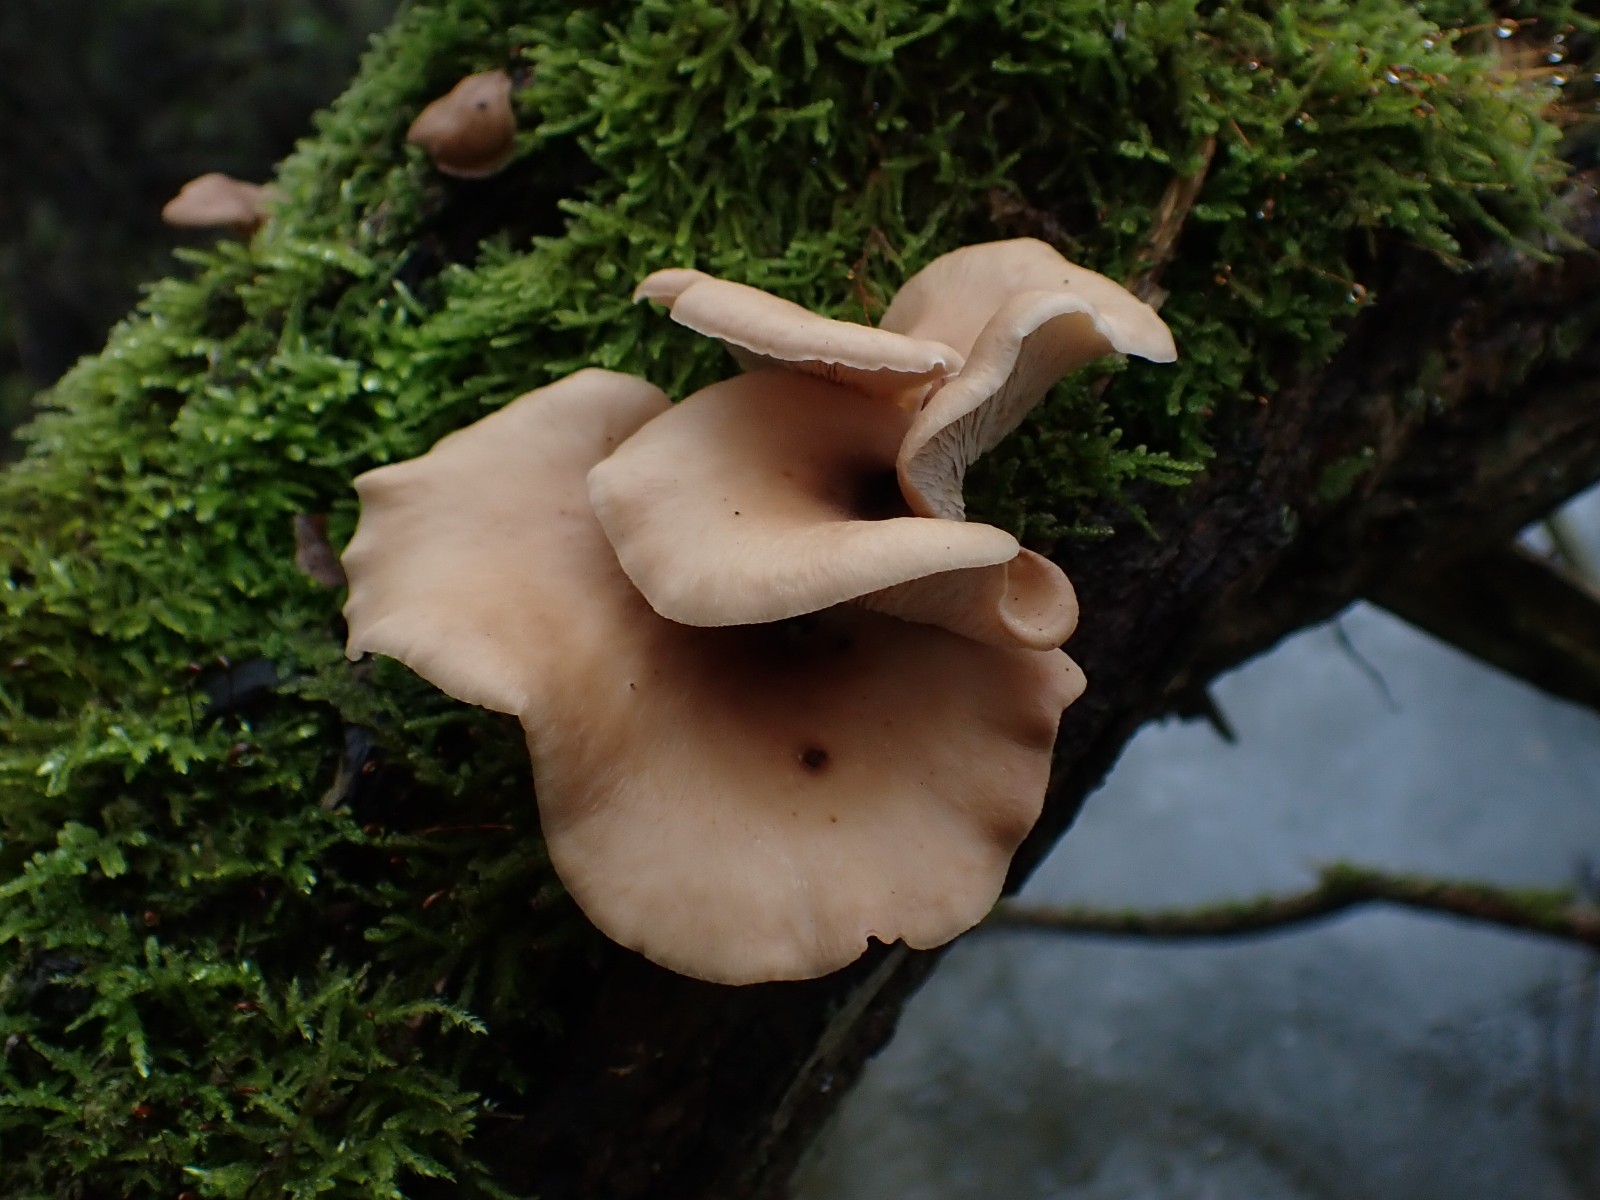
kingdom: Fungi
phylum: Basidiomycota
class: Agaricomycetes
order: Russulales
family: Auriscalpiaceae
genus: Lentinellus
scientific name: Lentinellus ursinus
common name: børstehåret savbladhat
